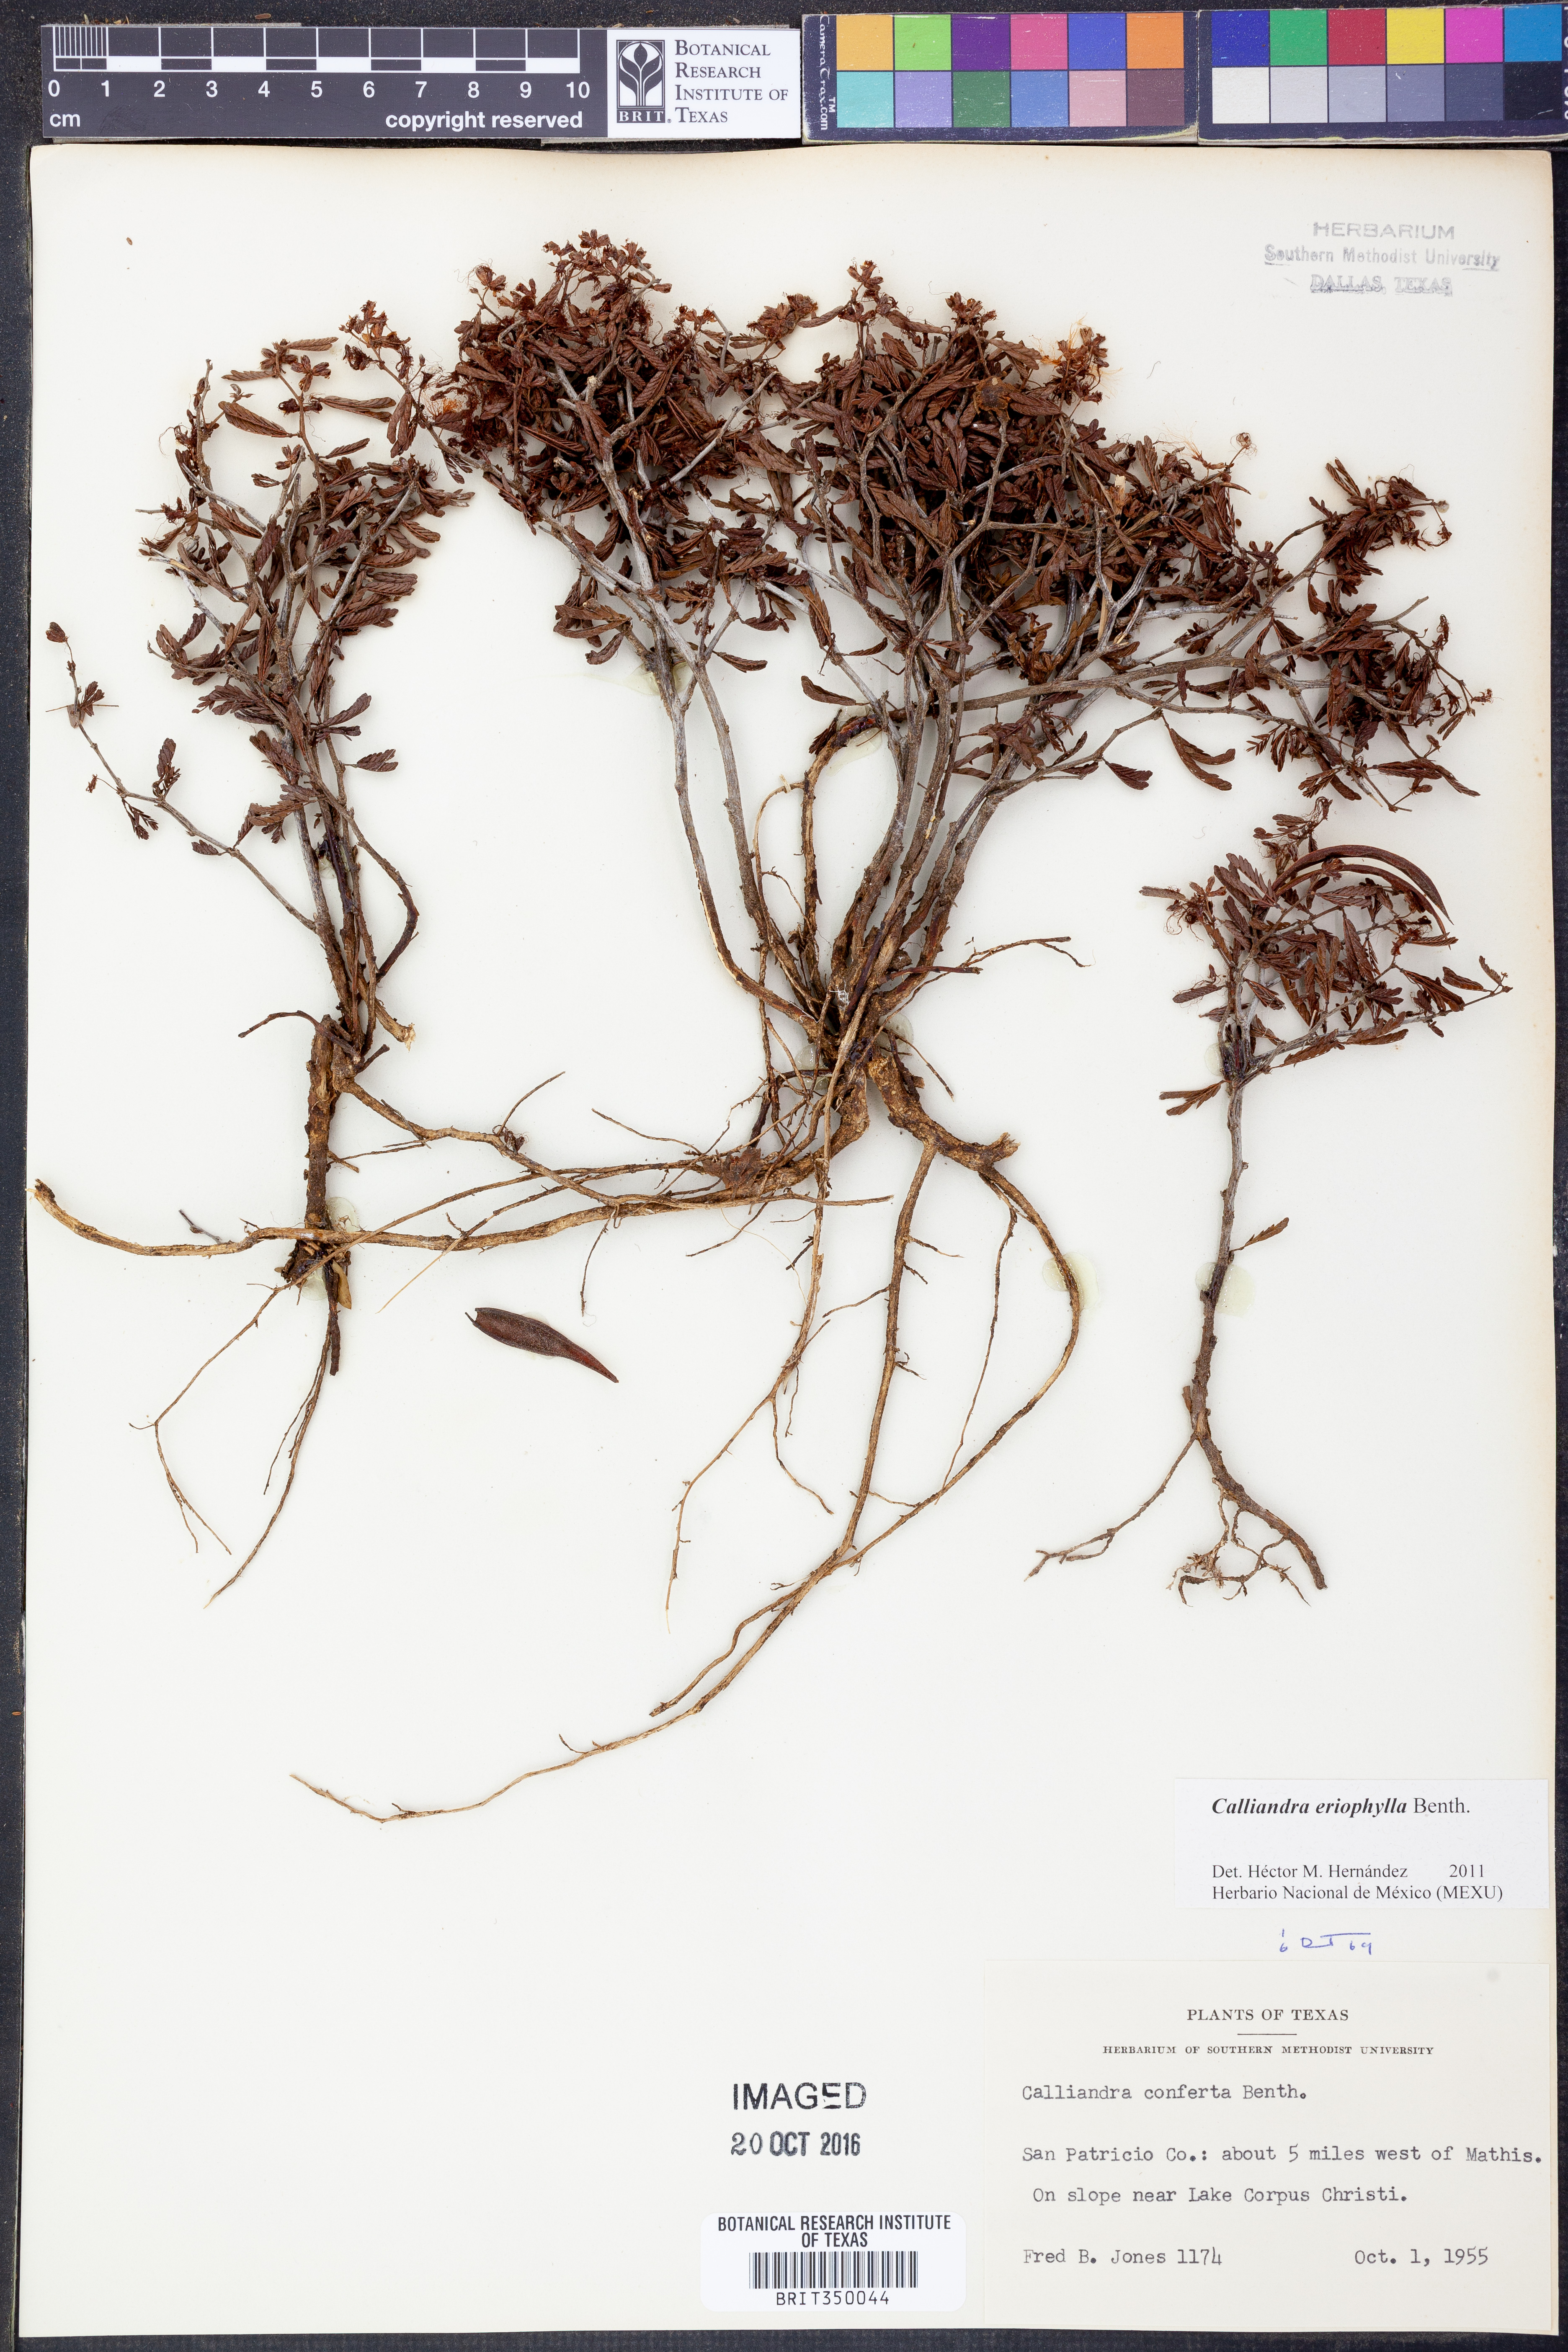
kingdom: Plantae
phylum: Tracheophyta
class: Magnoliopsida
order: Fabales
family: Fabaceae
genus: Calliandra
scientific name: Calliandra eriophylla
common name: Fairy-duster
